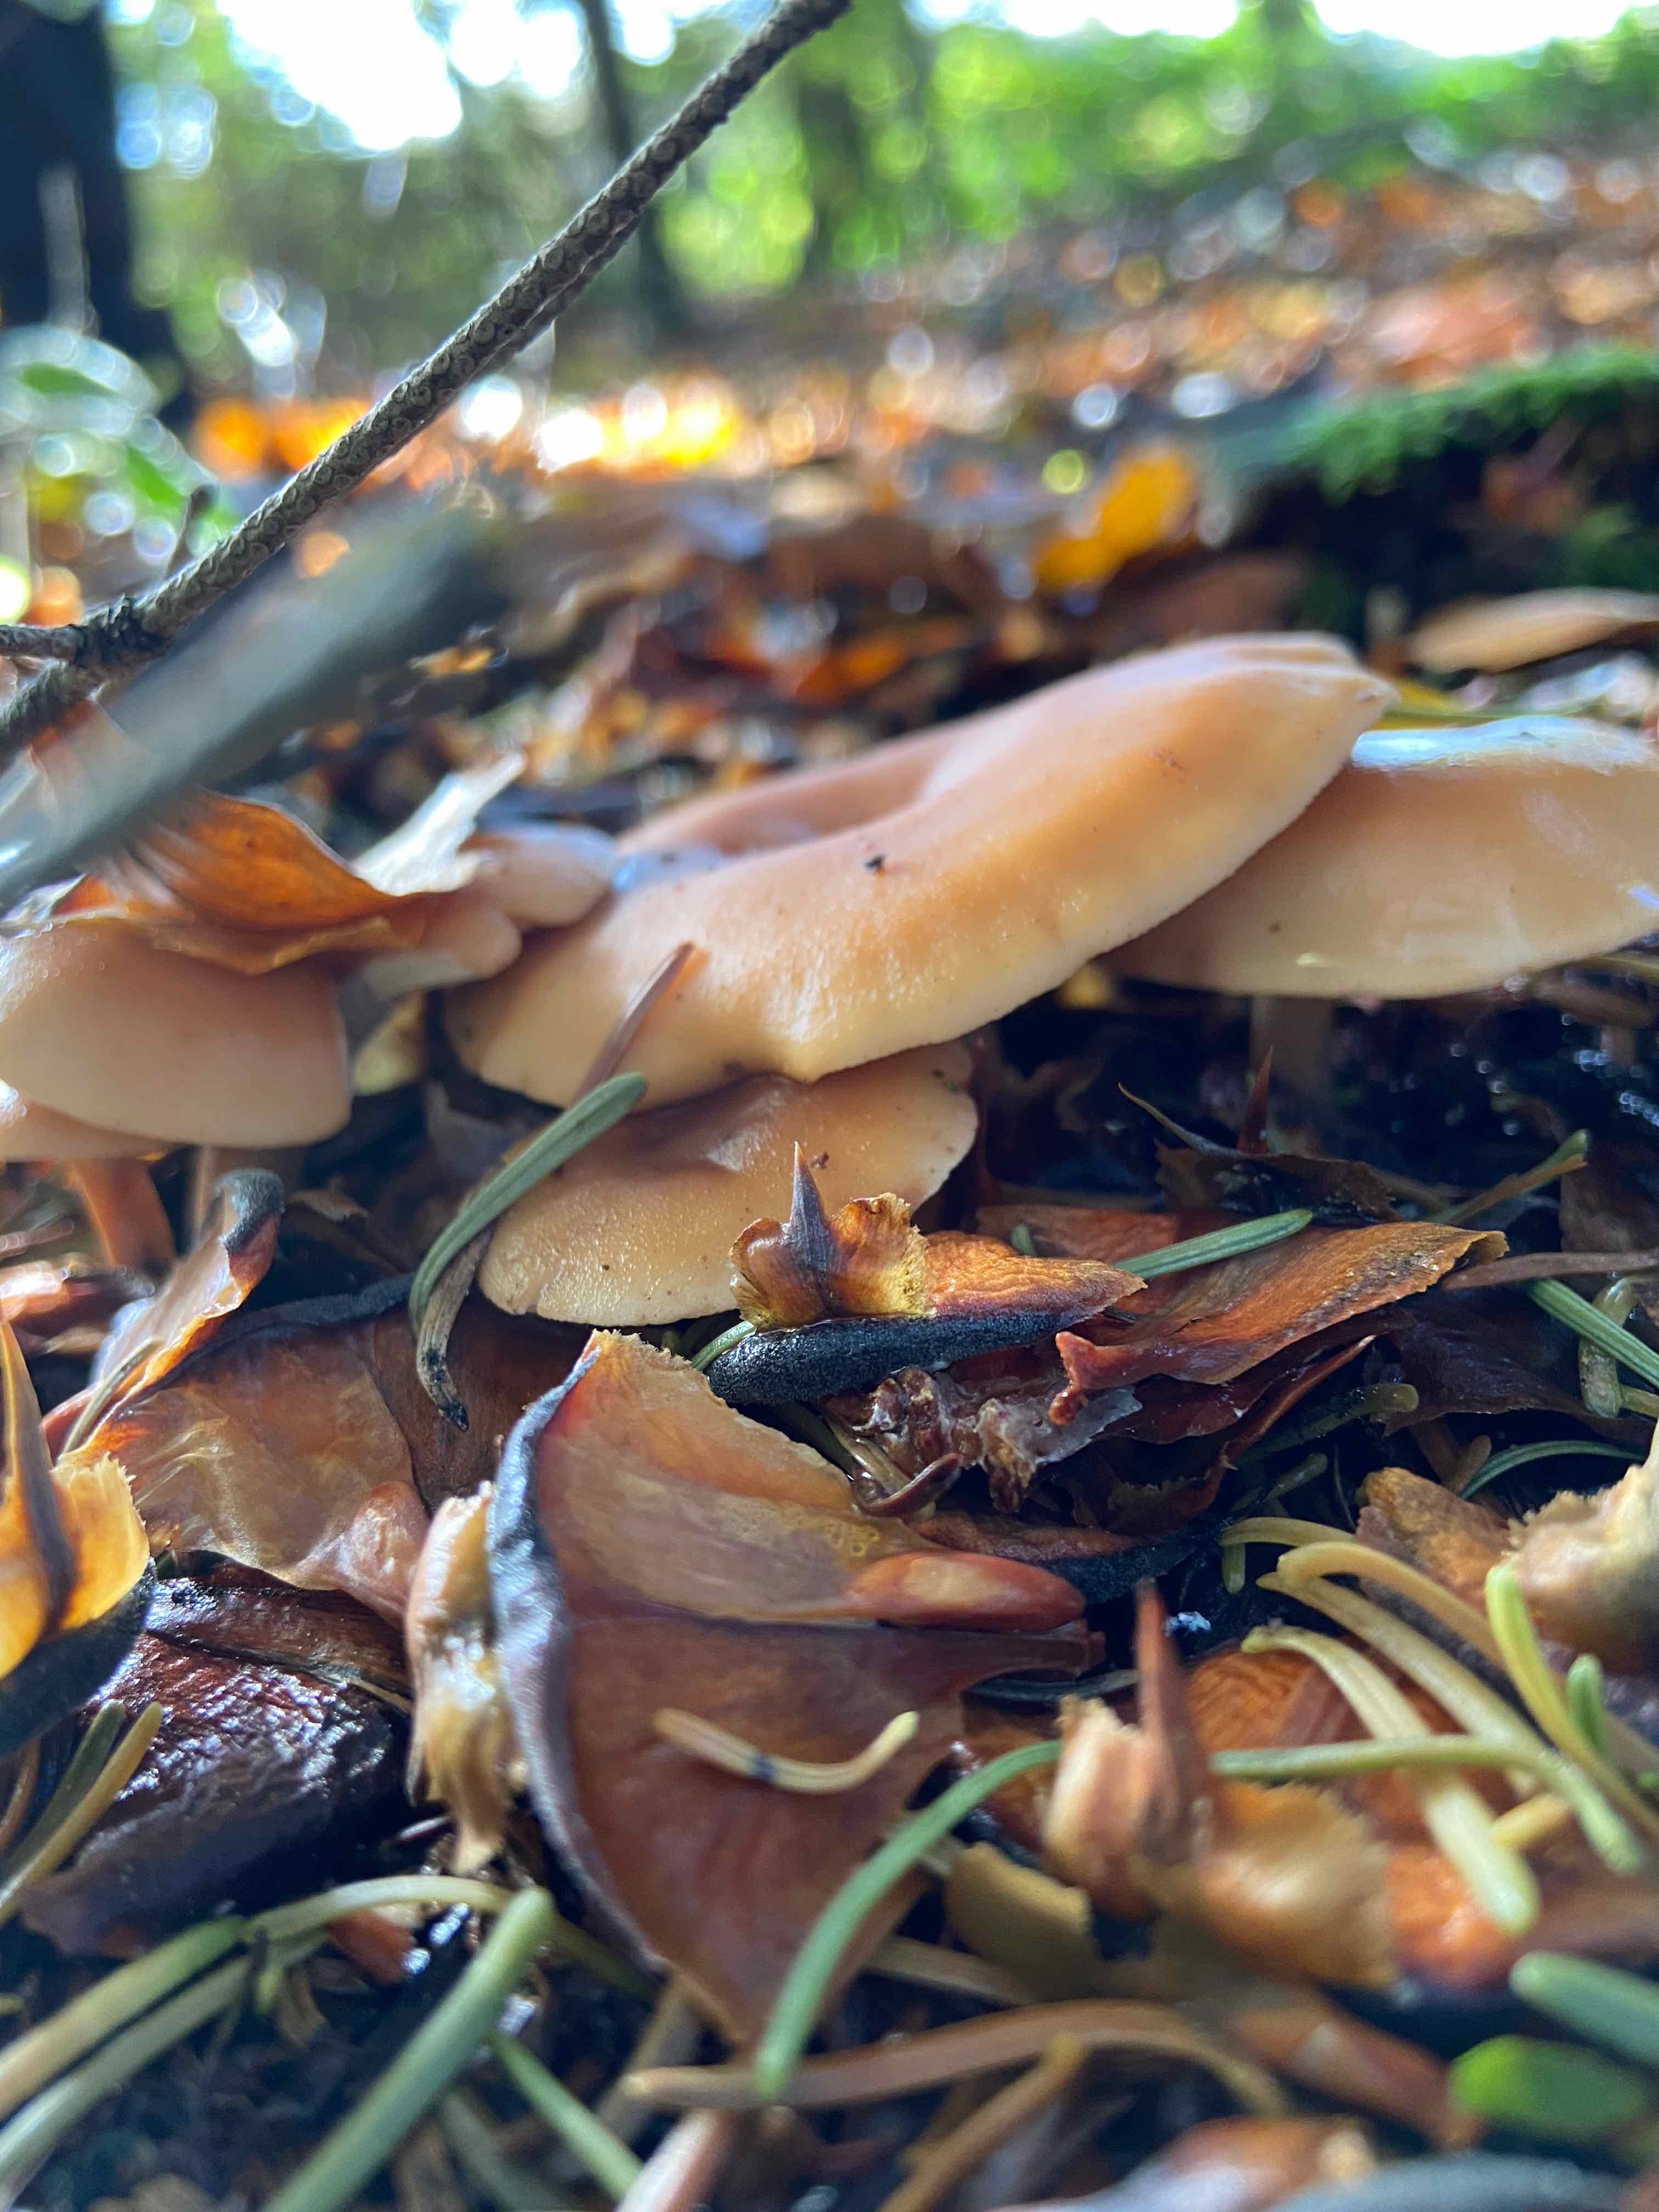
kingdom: Fungi
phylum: Basidiomycota
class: Agaricomycetes
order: Agaricales
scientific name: Agaricales
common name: champignonordenen
